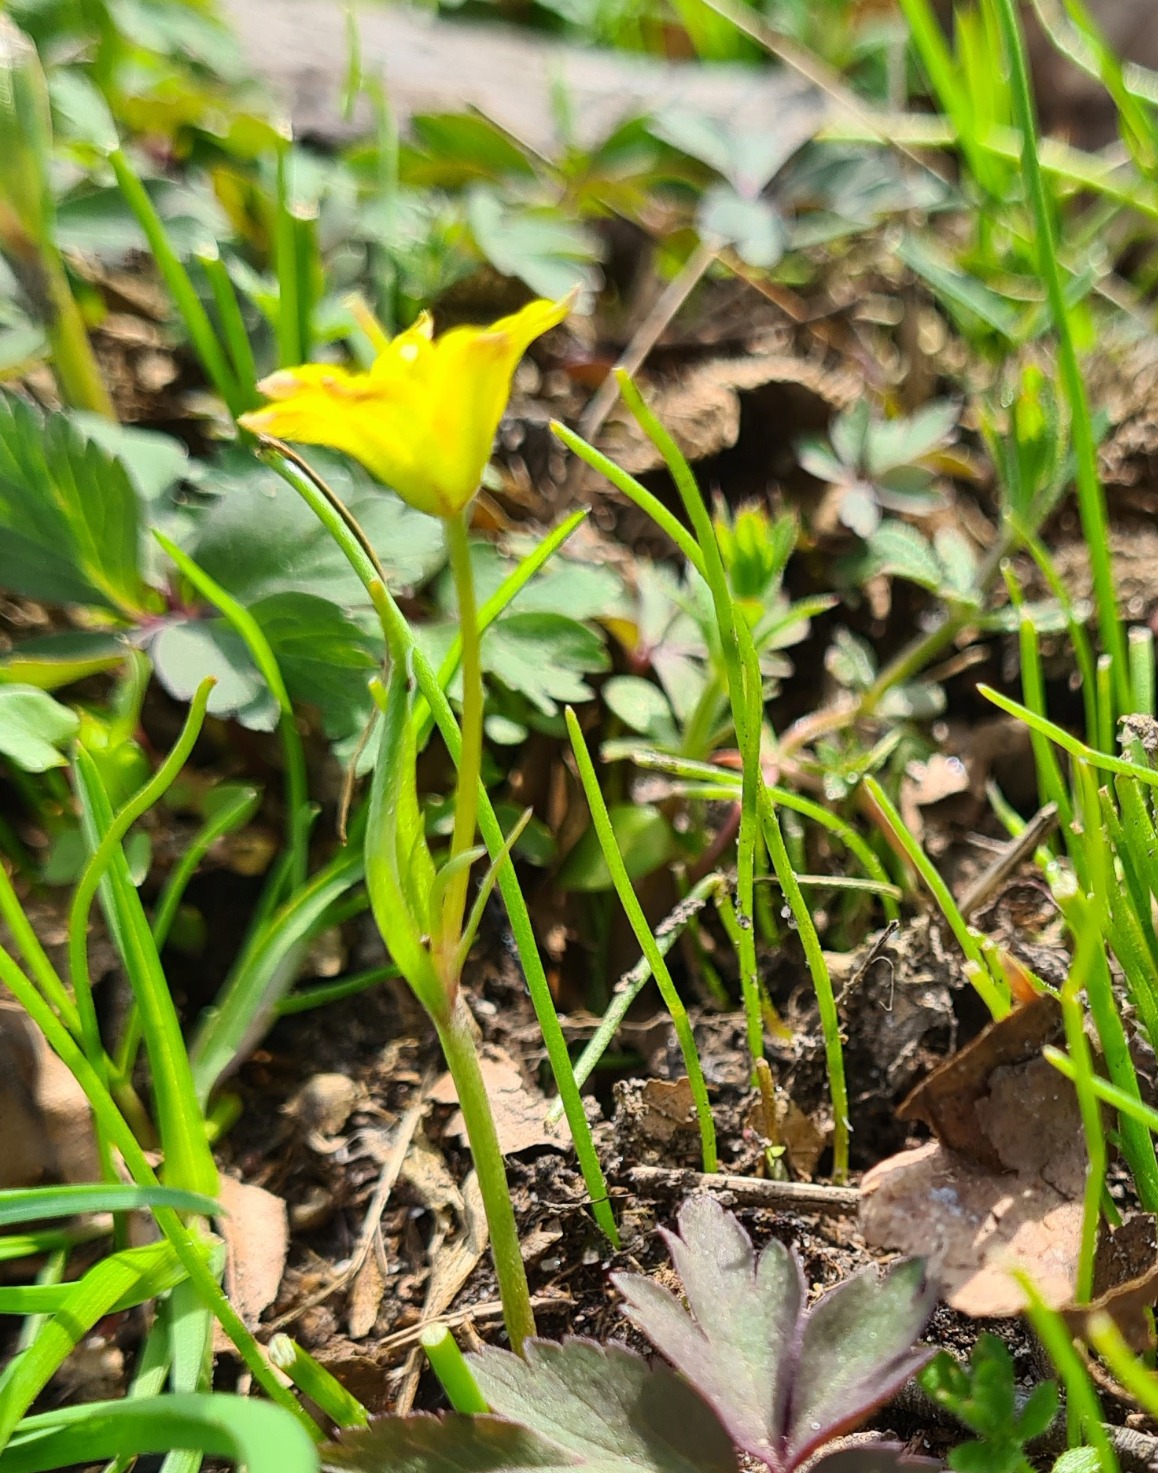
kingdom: Plantae
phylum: Tracheophyta
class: Liliopsida
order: Liliales
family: Liliaceae
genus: Gagea
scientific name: Gagea spathacea
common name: Hylster-guldstjerne
